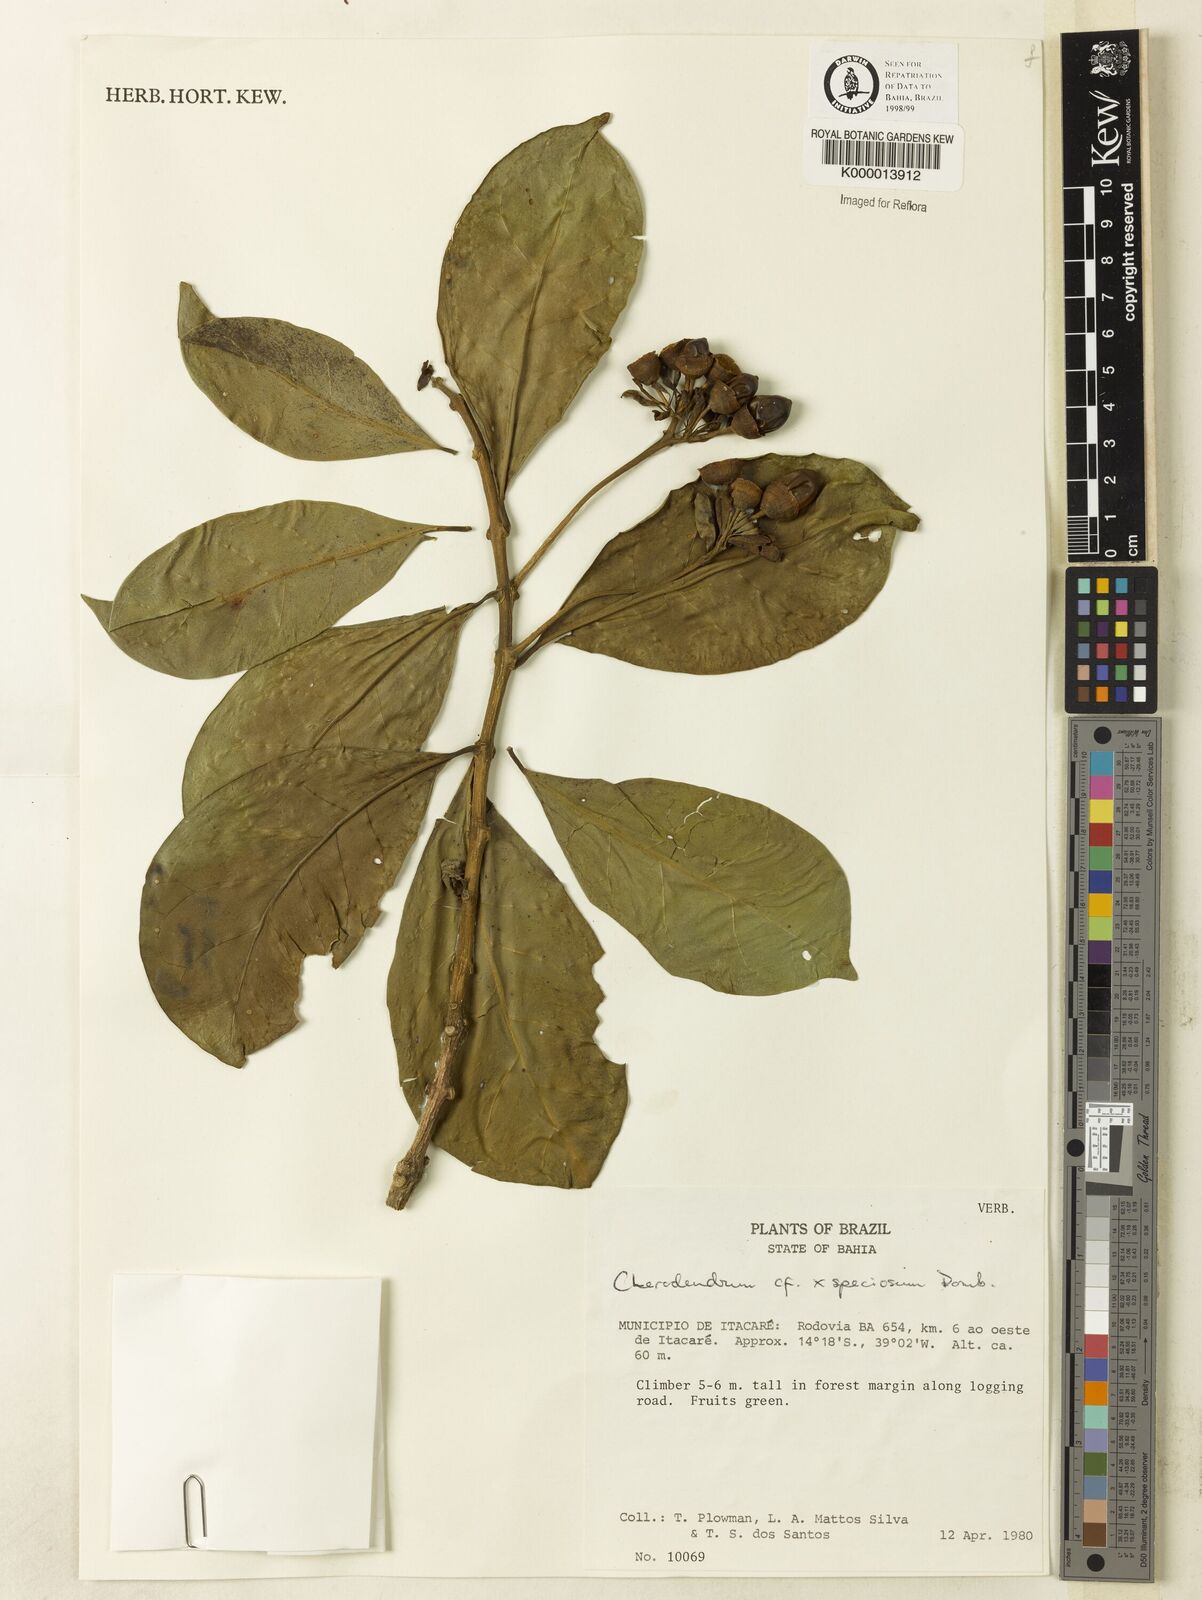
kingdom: Plantae
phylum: Tracheophyta
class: Magnoliopsida
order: Lamiales
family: Lamiaceae
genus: Aegiphila
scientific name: Aegiphila
